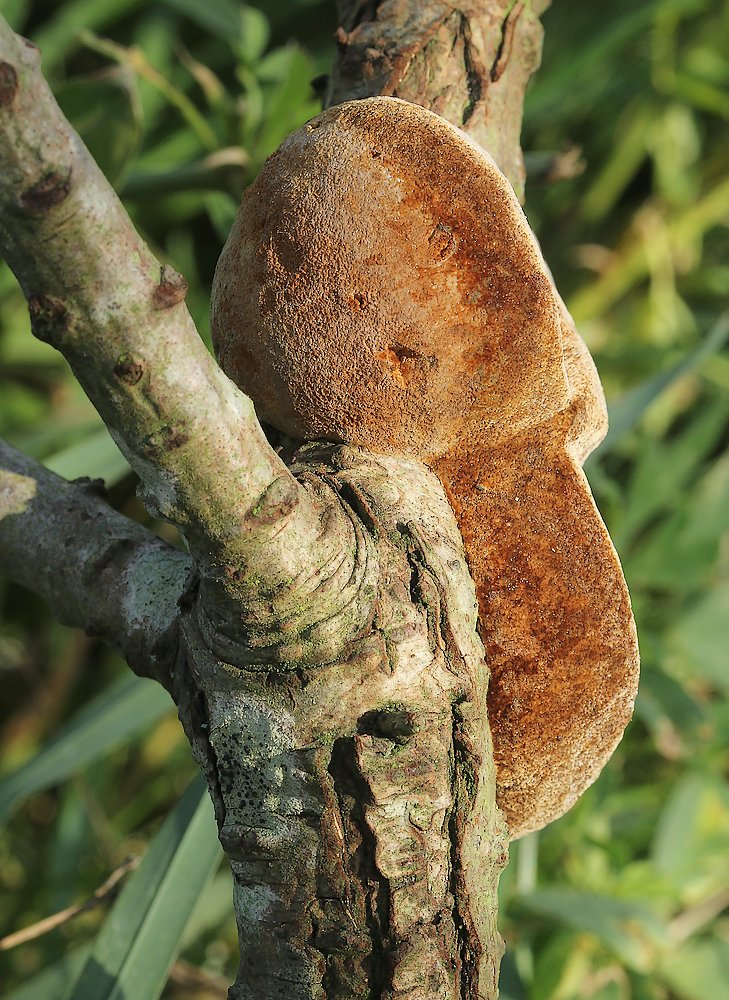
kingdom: Fungi
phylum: Basidiomycota
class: Agaricomycetes
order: Hymenochaetales
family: Hymenochaetaceae
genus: Fomitiporia
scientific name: Fomitiporia hippophaeicola
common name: havtorn-ildporesvamp
